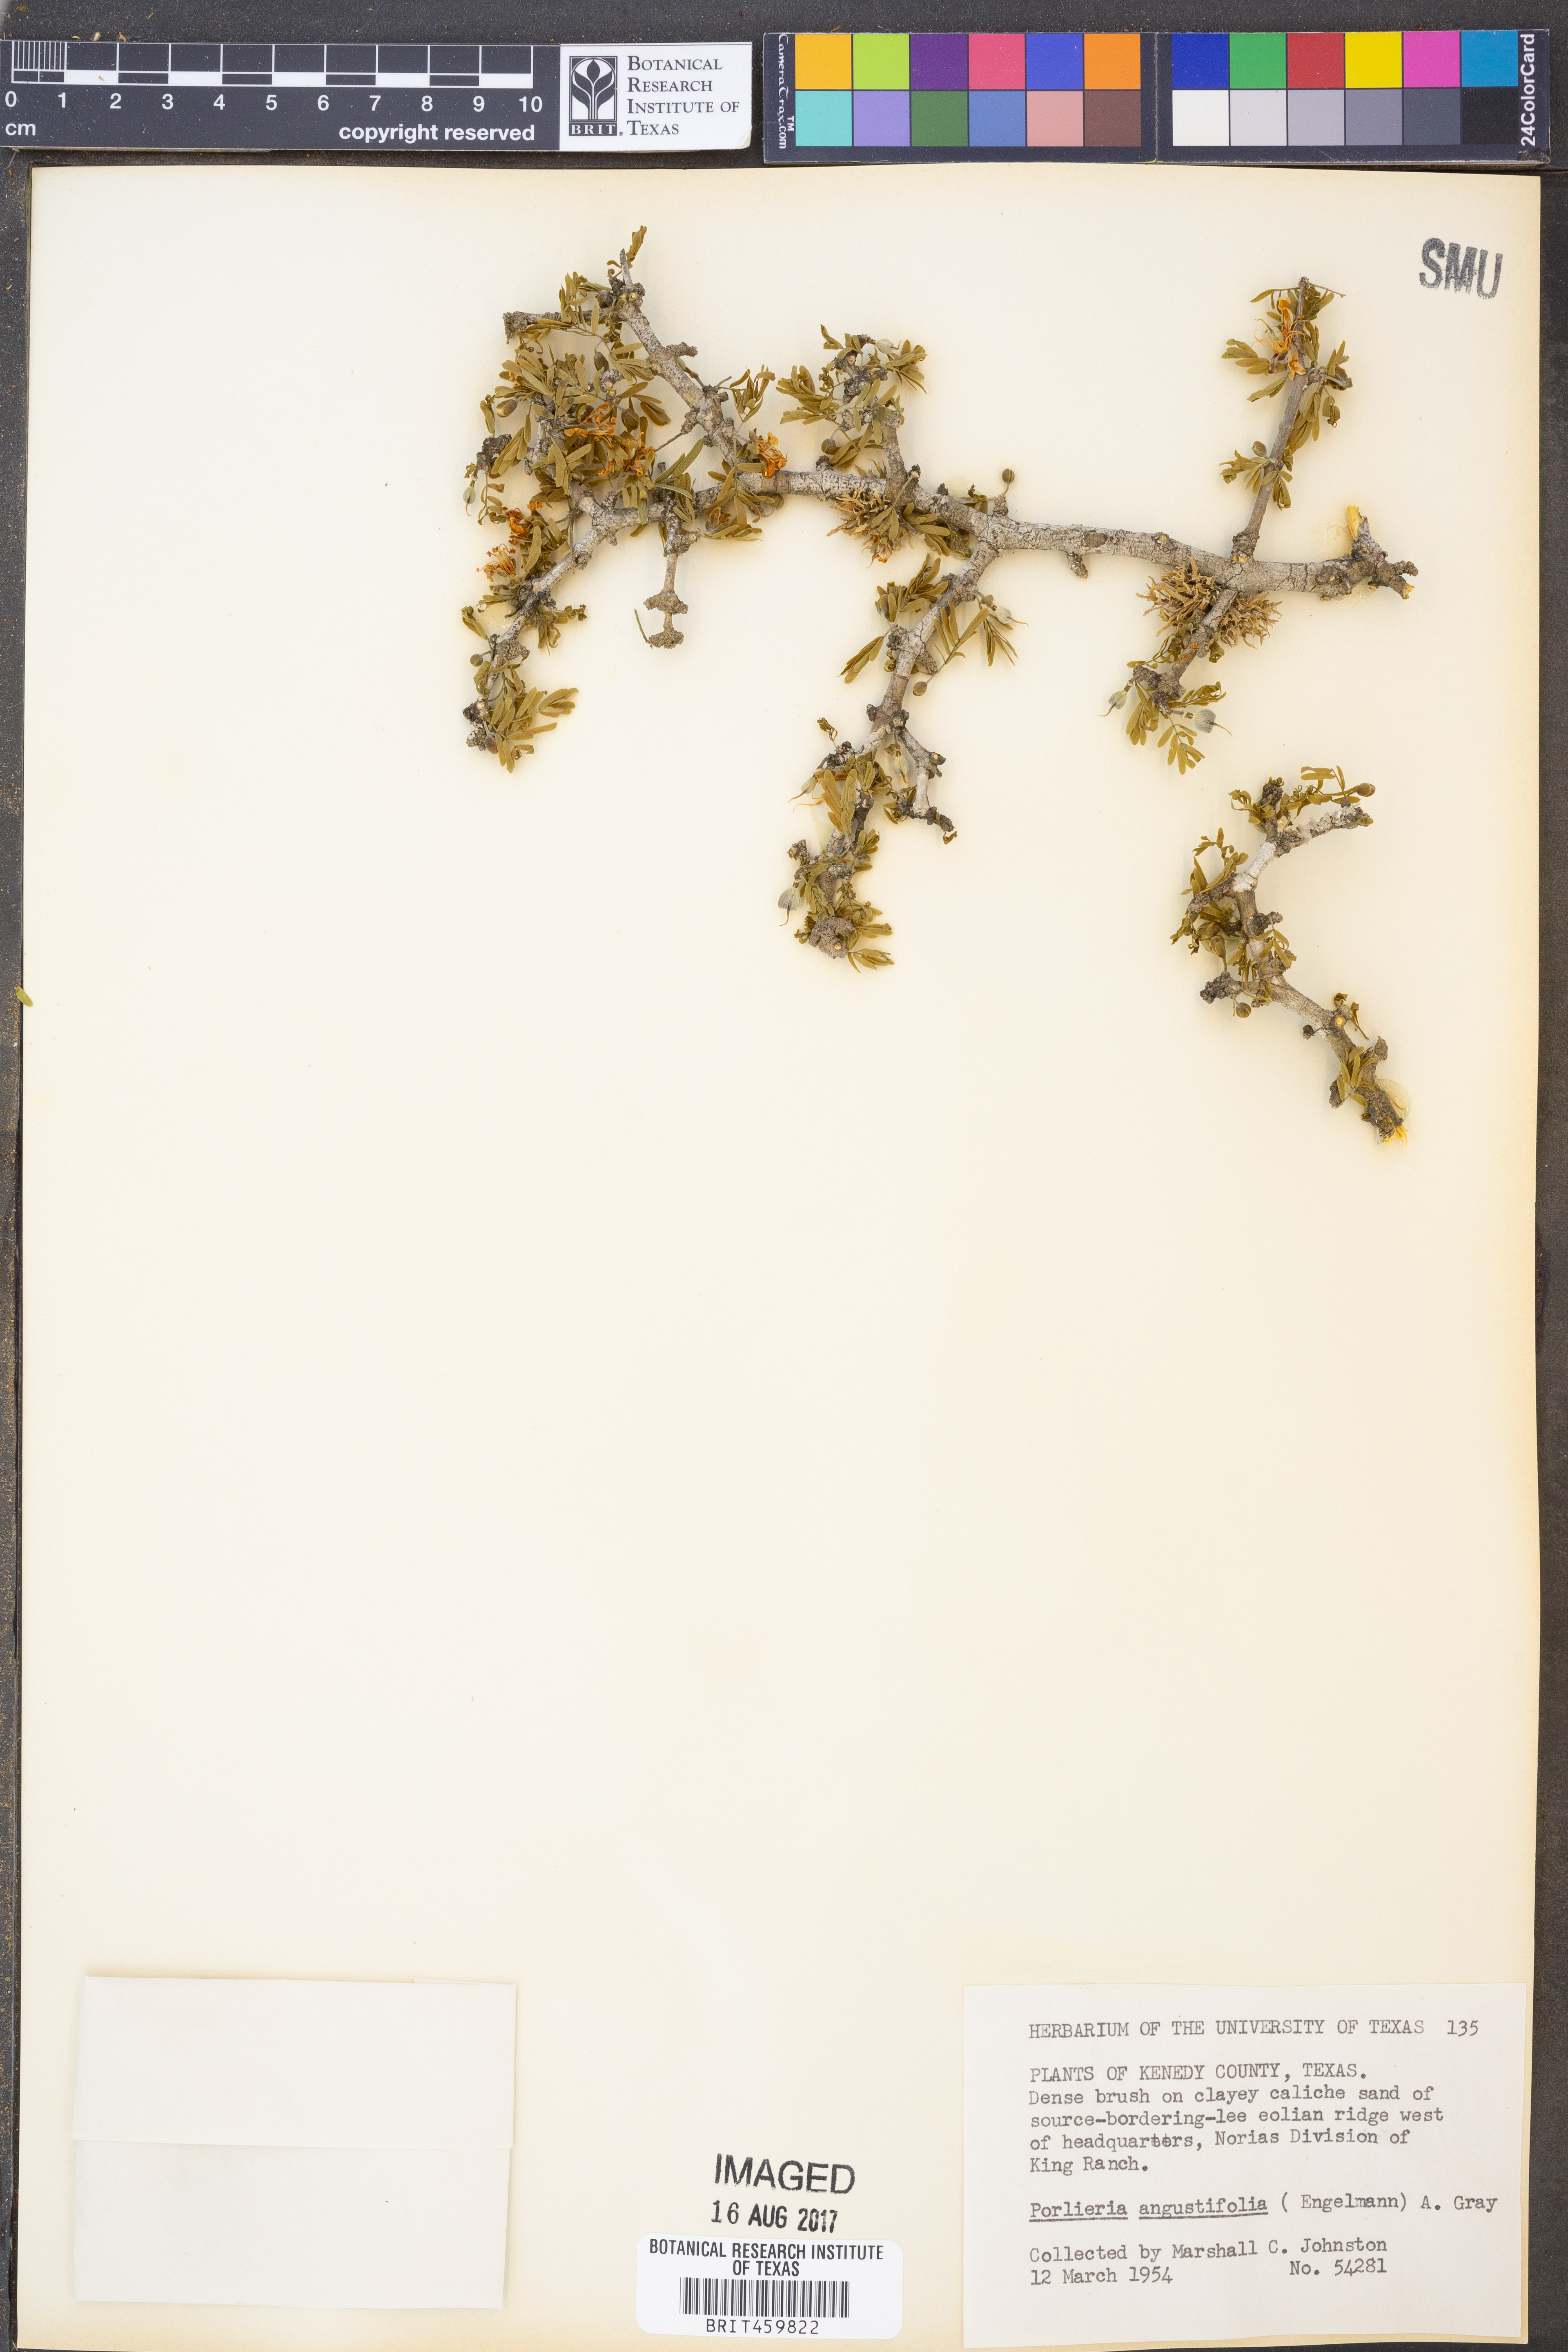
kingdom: Plantae
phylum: Tracheophyta
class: Magnoliopsida
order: Zygophyllales
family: Zygophyllaceae
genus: Porlieria
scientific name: Porlieria angustifolia
